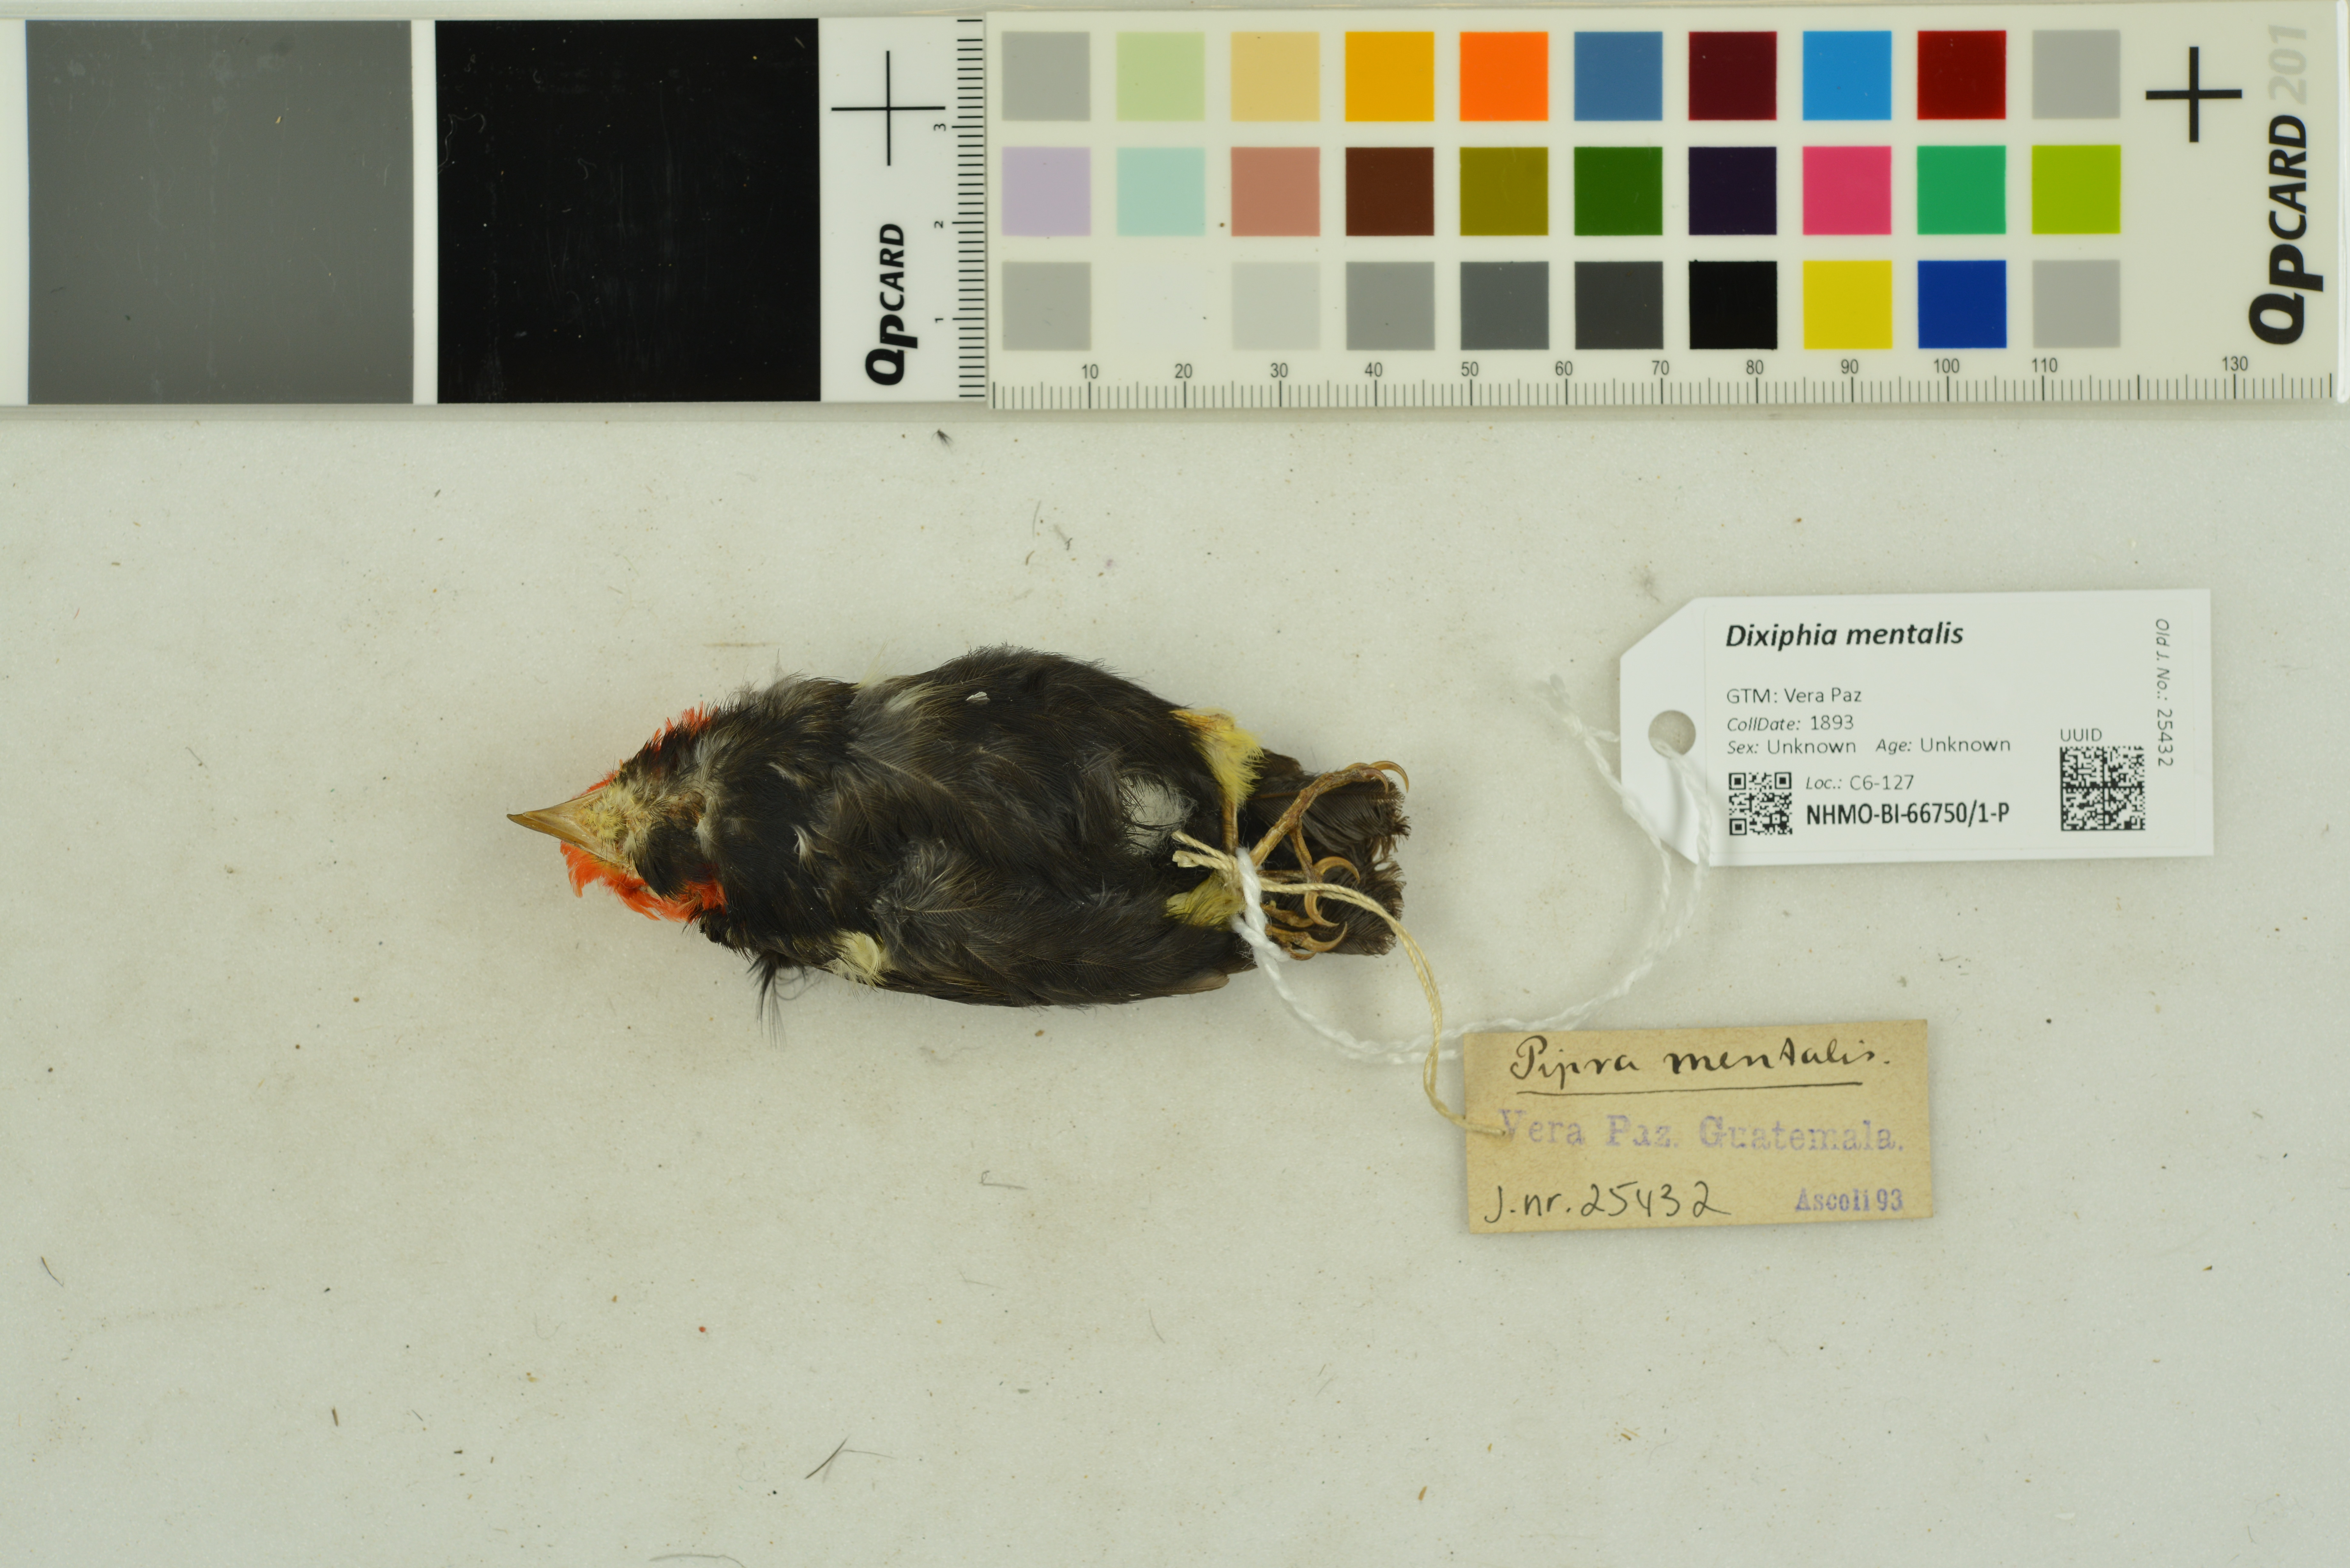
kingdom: Animalia
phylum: Chordata
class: Aves
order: Passeriformes
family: Pipridae
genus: Pipra
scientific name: Pipra mentalis
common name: Red-capped manakin
